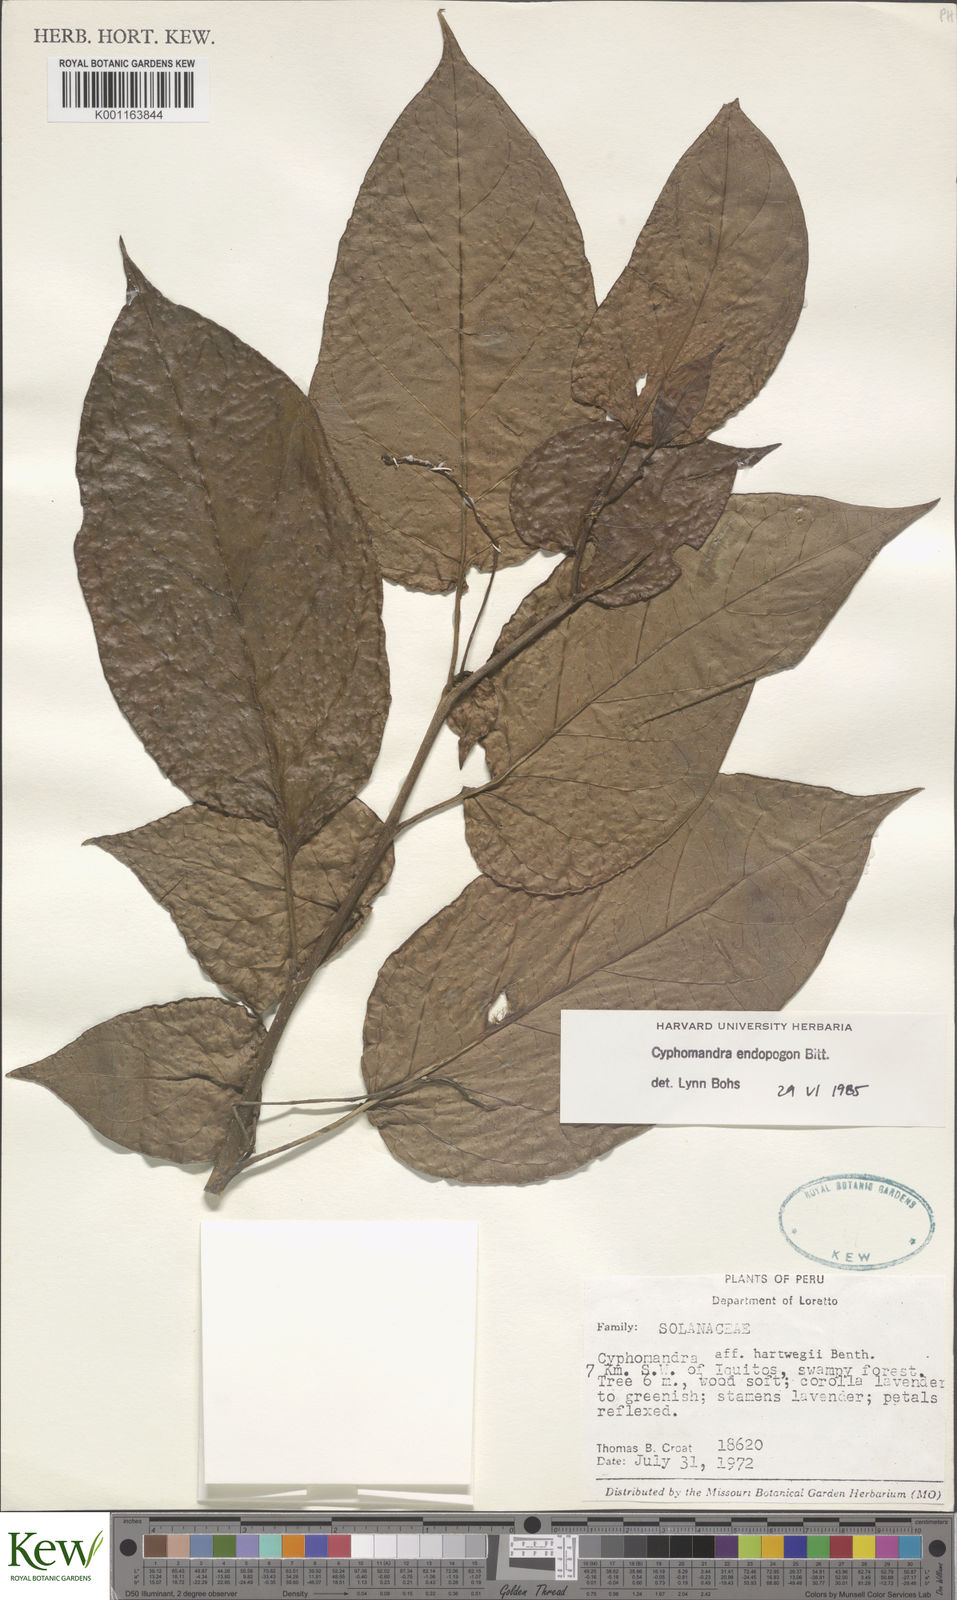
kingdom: Plantae
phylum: Tracheophyta
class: Magnoliopsida
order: Solanales
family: Solanaceae
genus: Solanum
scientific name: Solanum endopogon
